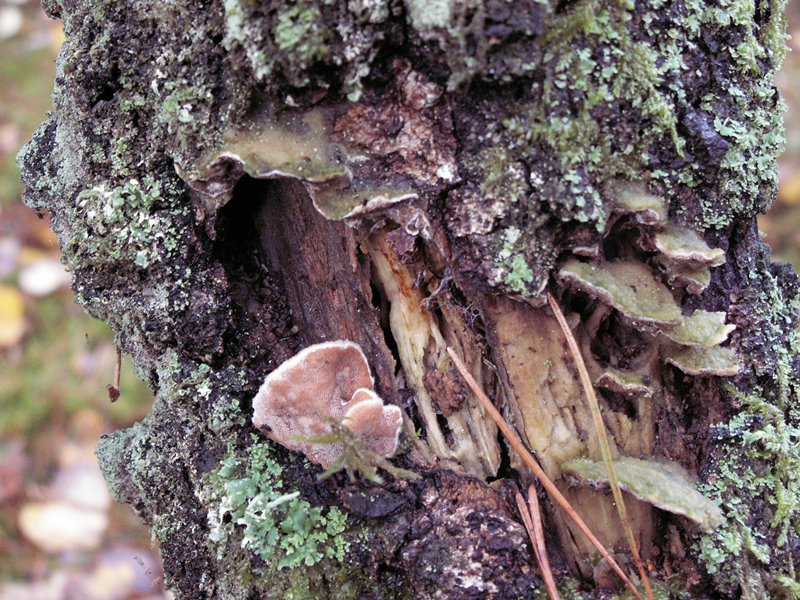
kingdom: Fungi
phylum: Basidiomycota
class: Agaricomycetes
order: Polyporales
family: Irpicaceae
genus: Vitreoporus
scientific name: Vitreoporus dichrous
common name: tofarvet foldporesvamp
